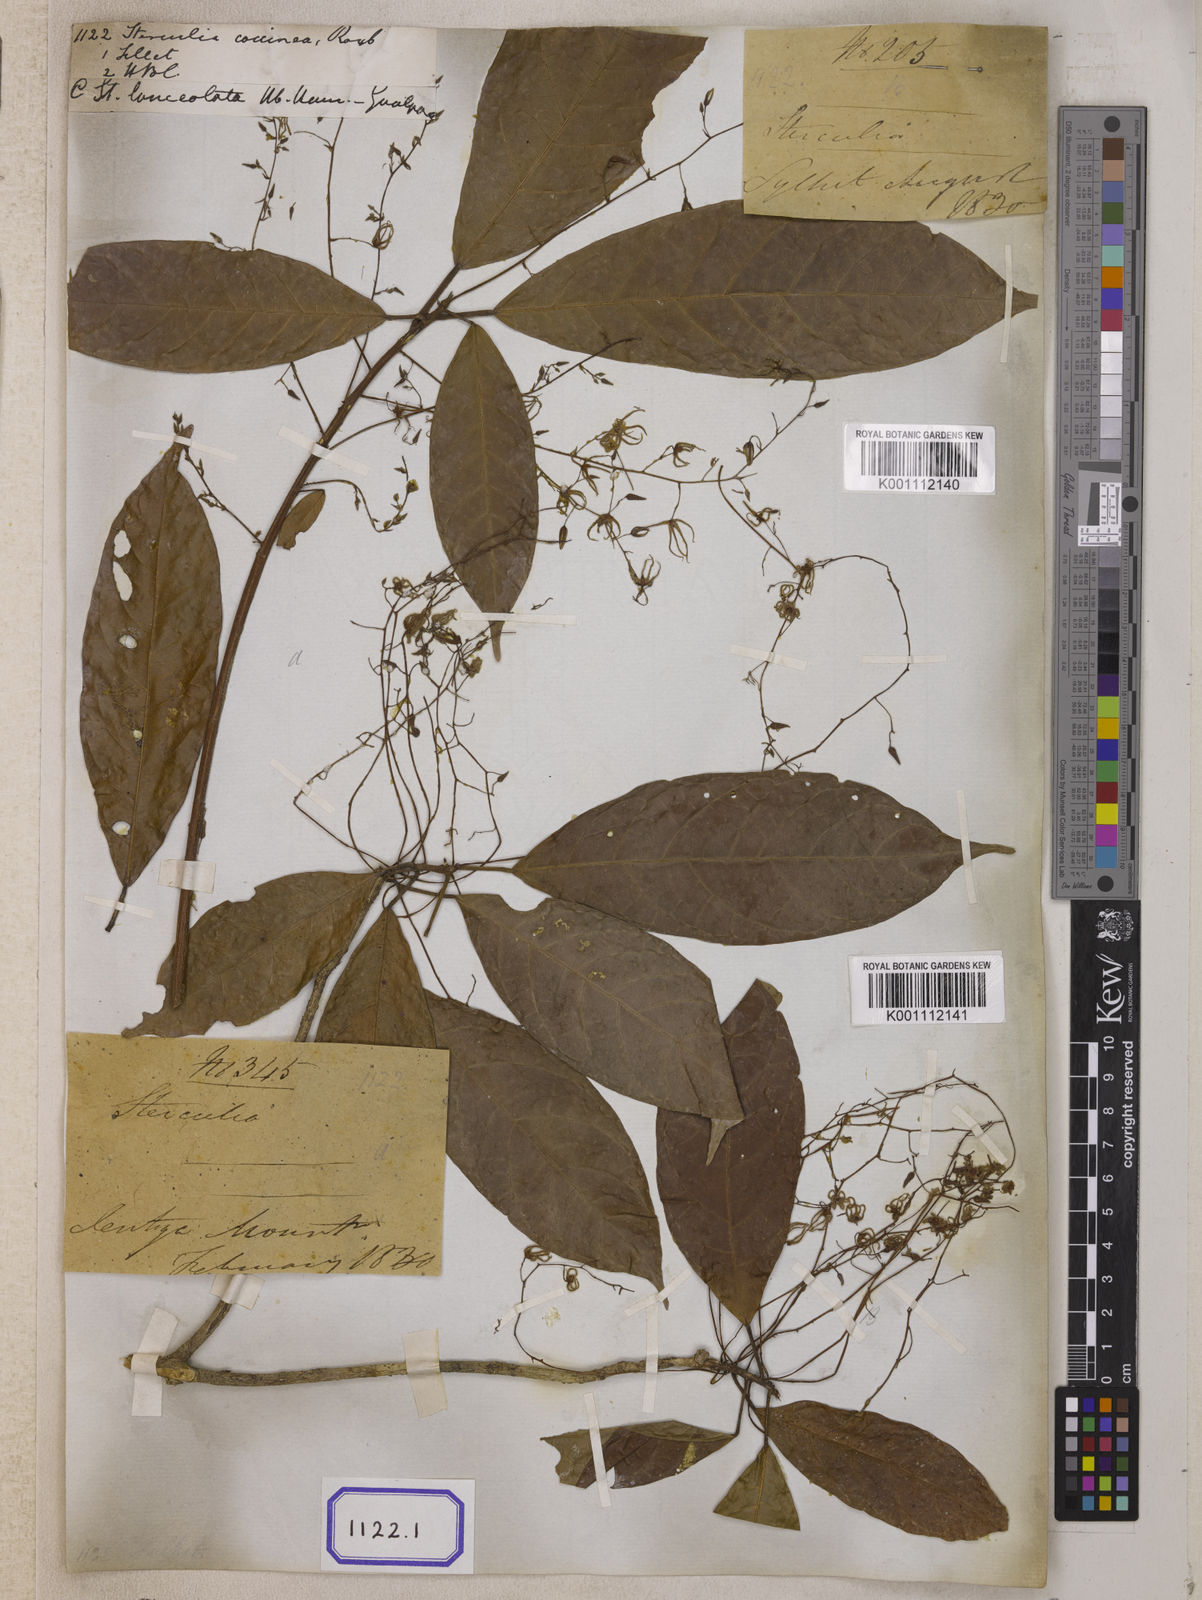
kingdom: Plantae
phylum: Tracheophyta
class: Magnoliopsida
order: Malvales
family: Malvaceae
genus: Sterculia
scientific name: Sterculia
